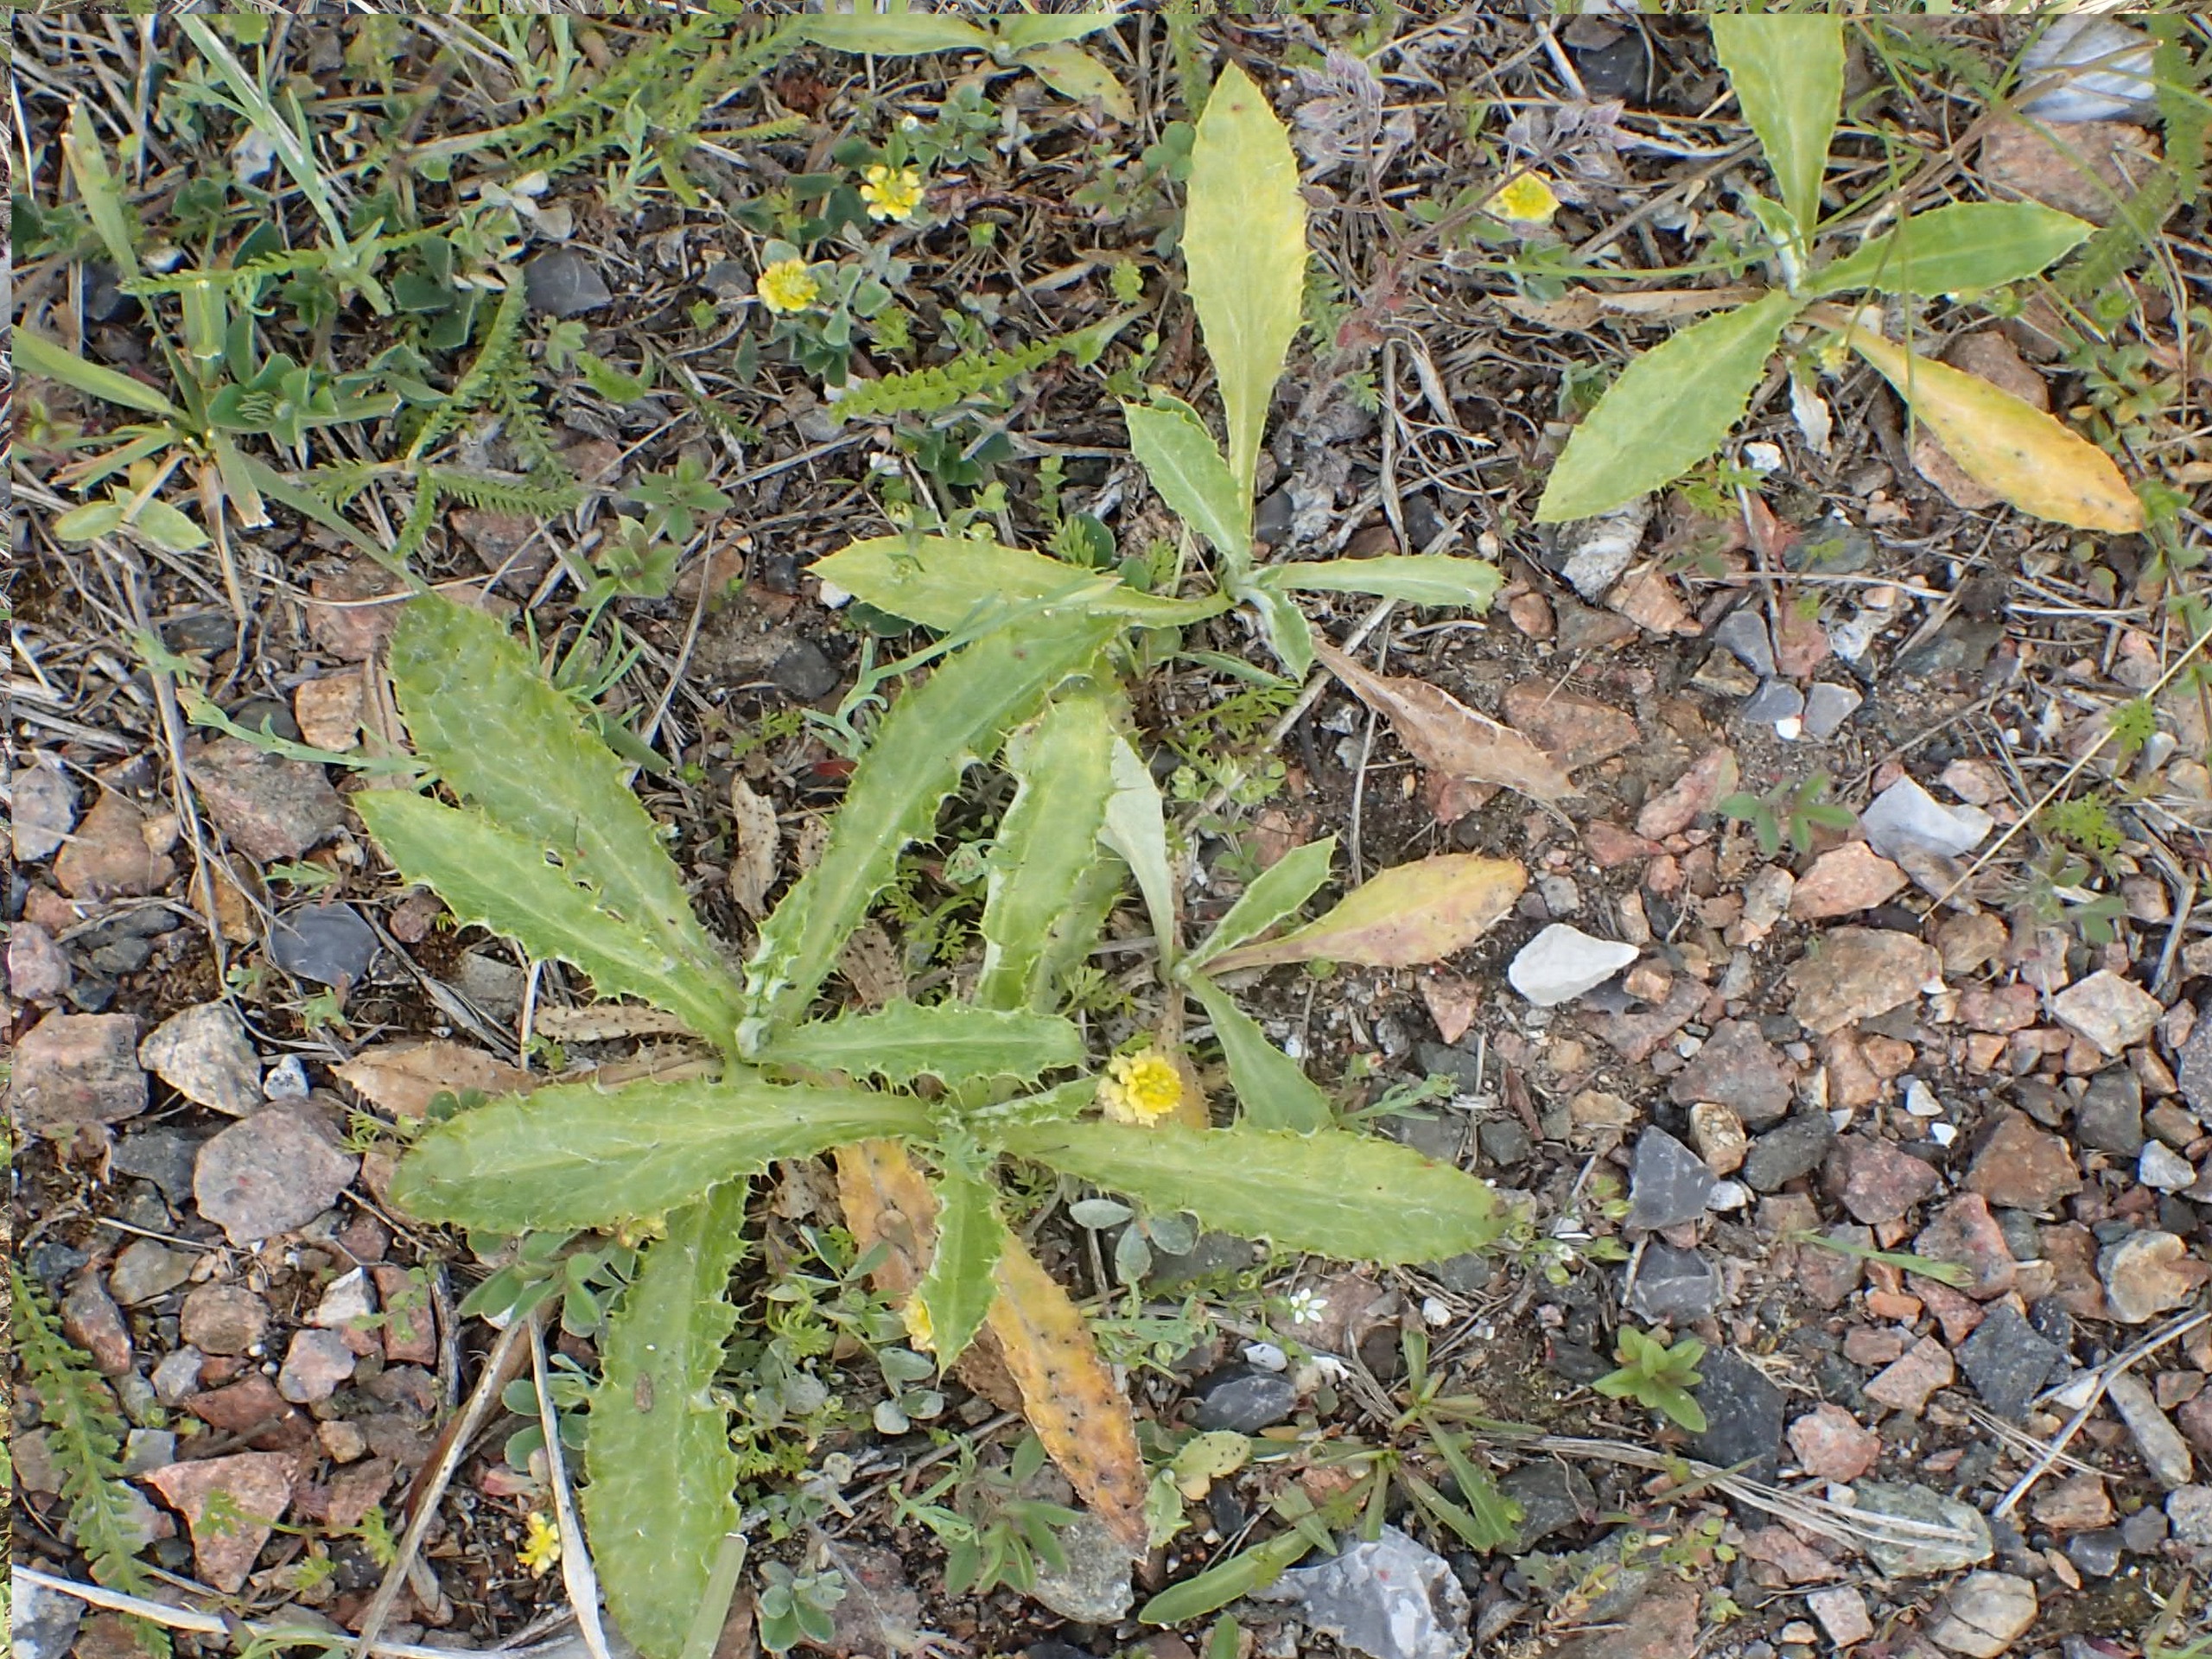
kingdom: Plantae
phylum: Tracheophyta
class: Magnoliopsida
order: Asterales
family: Asteraceae
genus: Carlina
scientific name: Carlina vulgaris
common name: Bakketidsel
